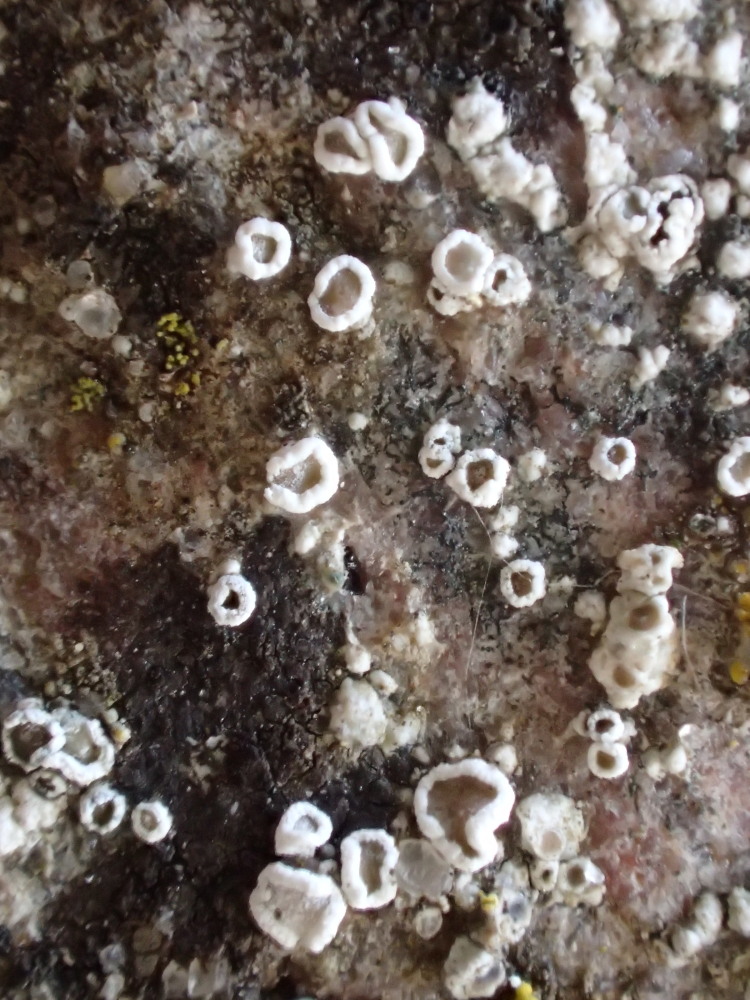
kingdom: Fungi
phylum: Ascomycota
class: Lecanoromycetes
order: Lecanorales
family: Lecanoraceae
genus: Polyozosia
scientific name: Polyozosia dispersa
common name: spredt kantskivelav
